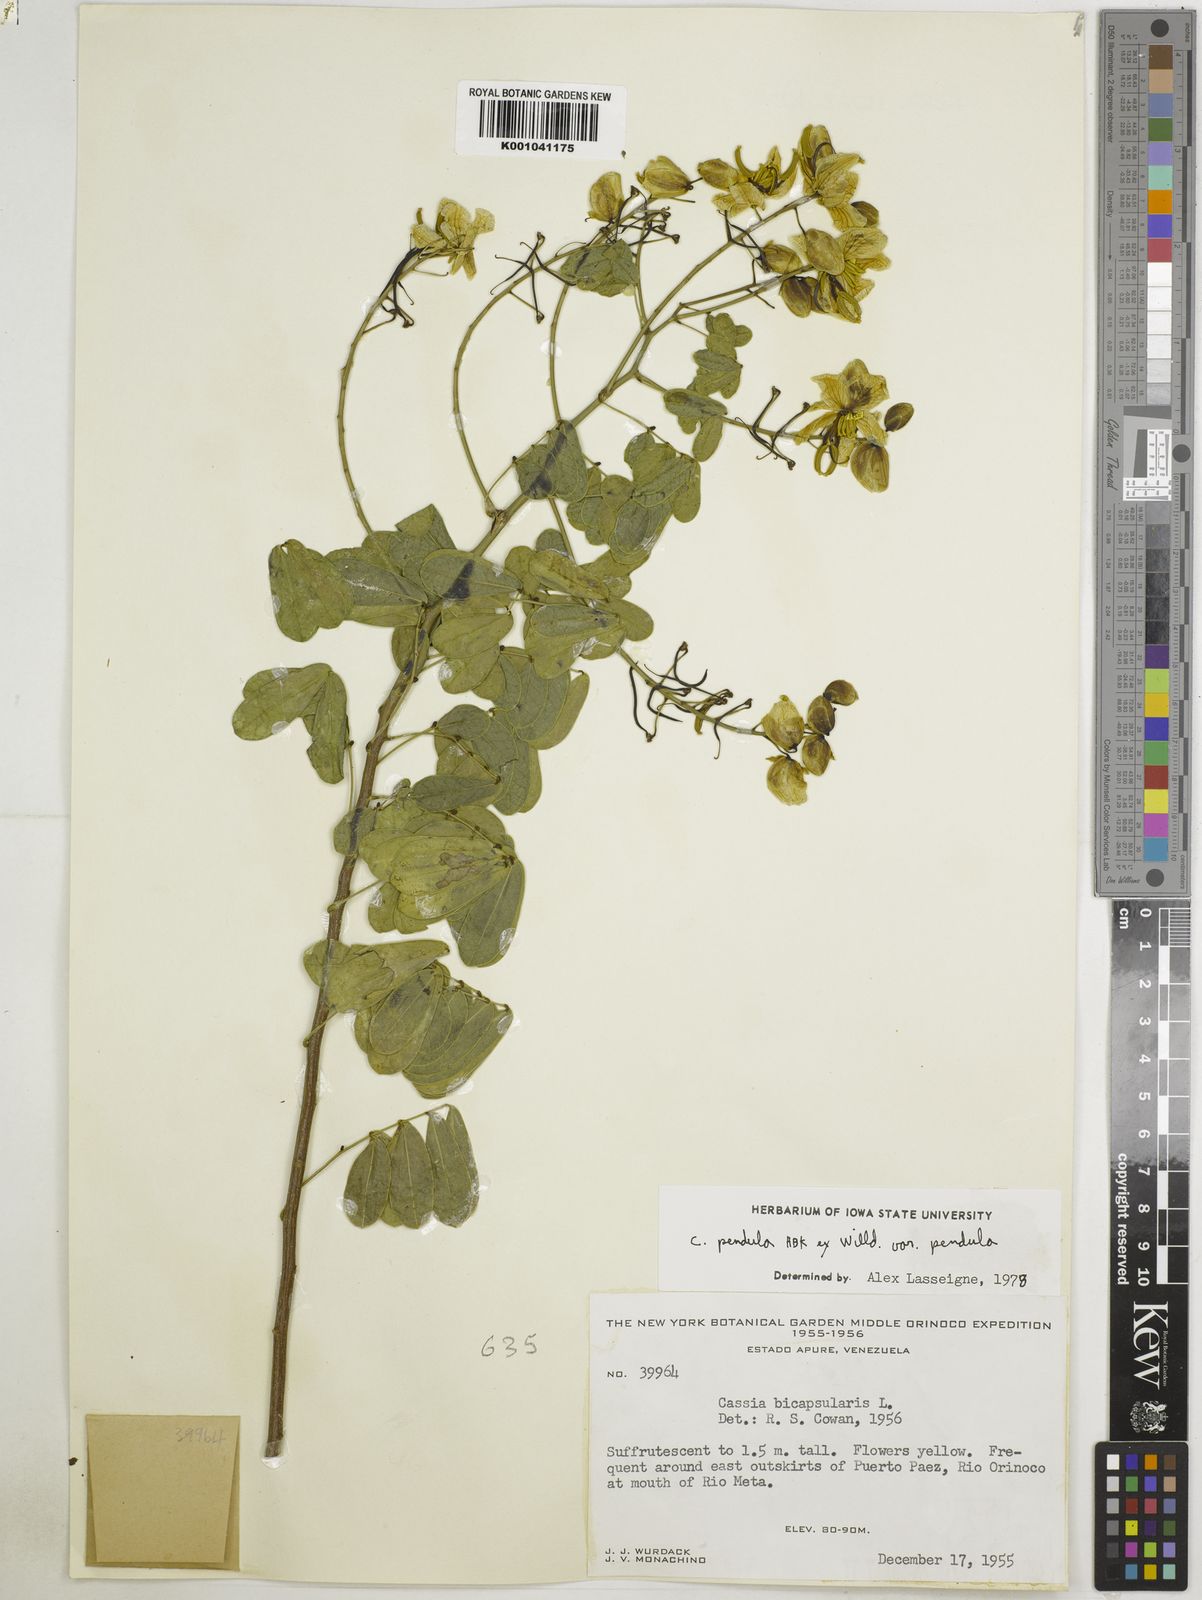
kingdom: Plantae
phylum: Tracheophyta
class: Magnoliopsida
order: Fabales
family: Fabaceae
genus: Senna
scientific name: Senna pendula
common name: Easter cassia
